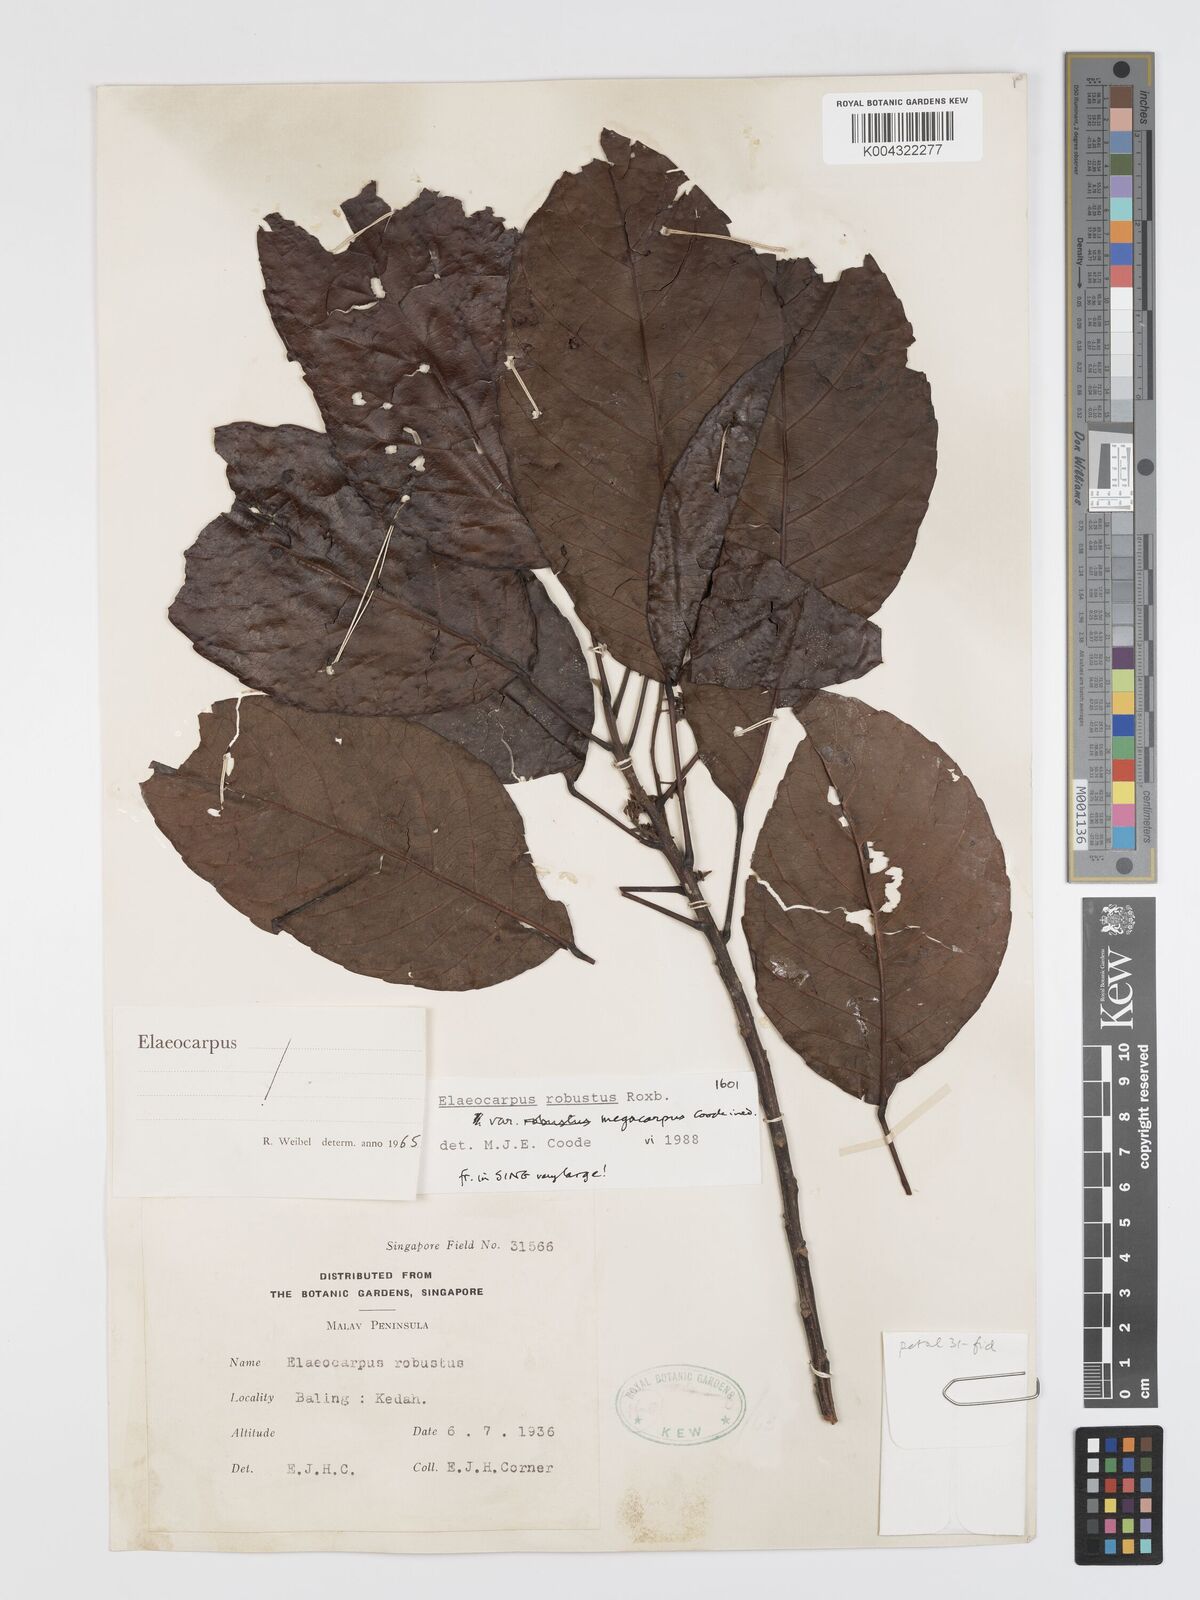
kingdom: Plantae
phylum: Tracheophyta
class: Magnoliopsida
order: Oxalidales
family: Elaeocarpaceae
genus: Elaeocarpus
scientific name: Elaeocarpus robustus
